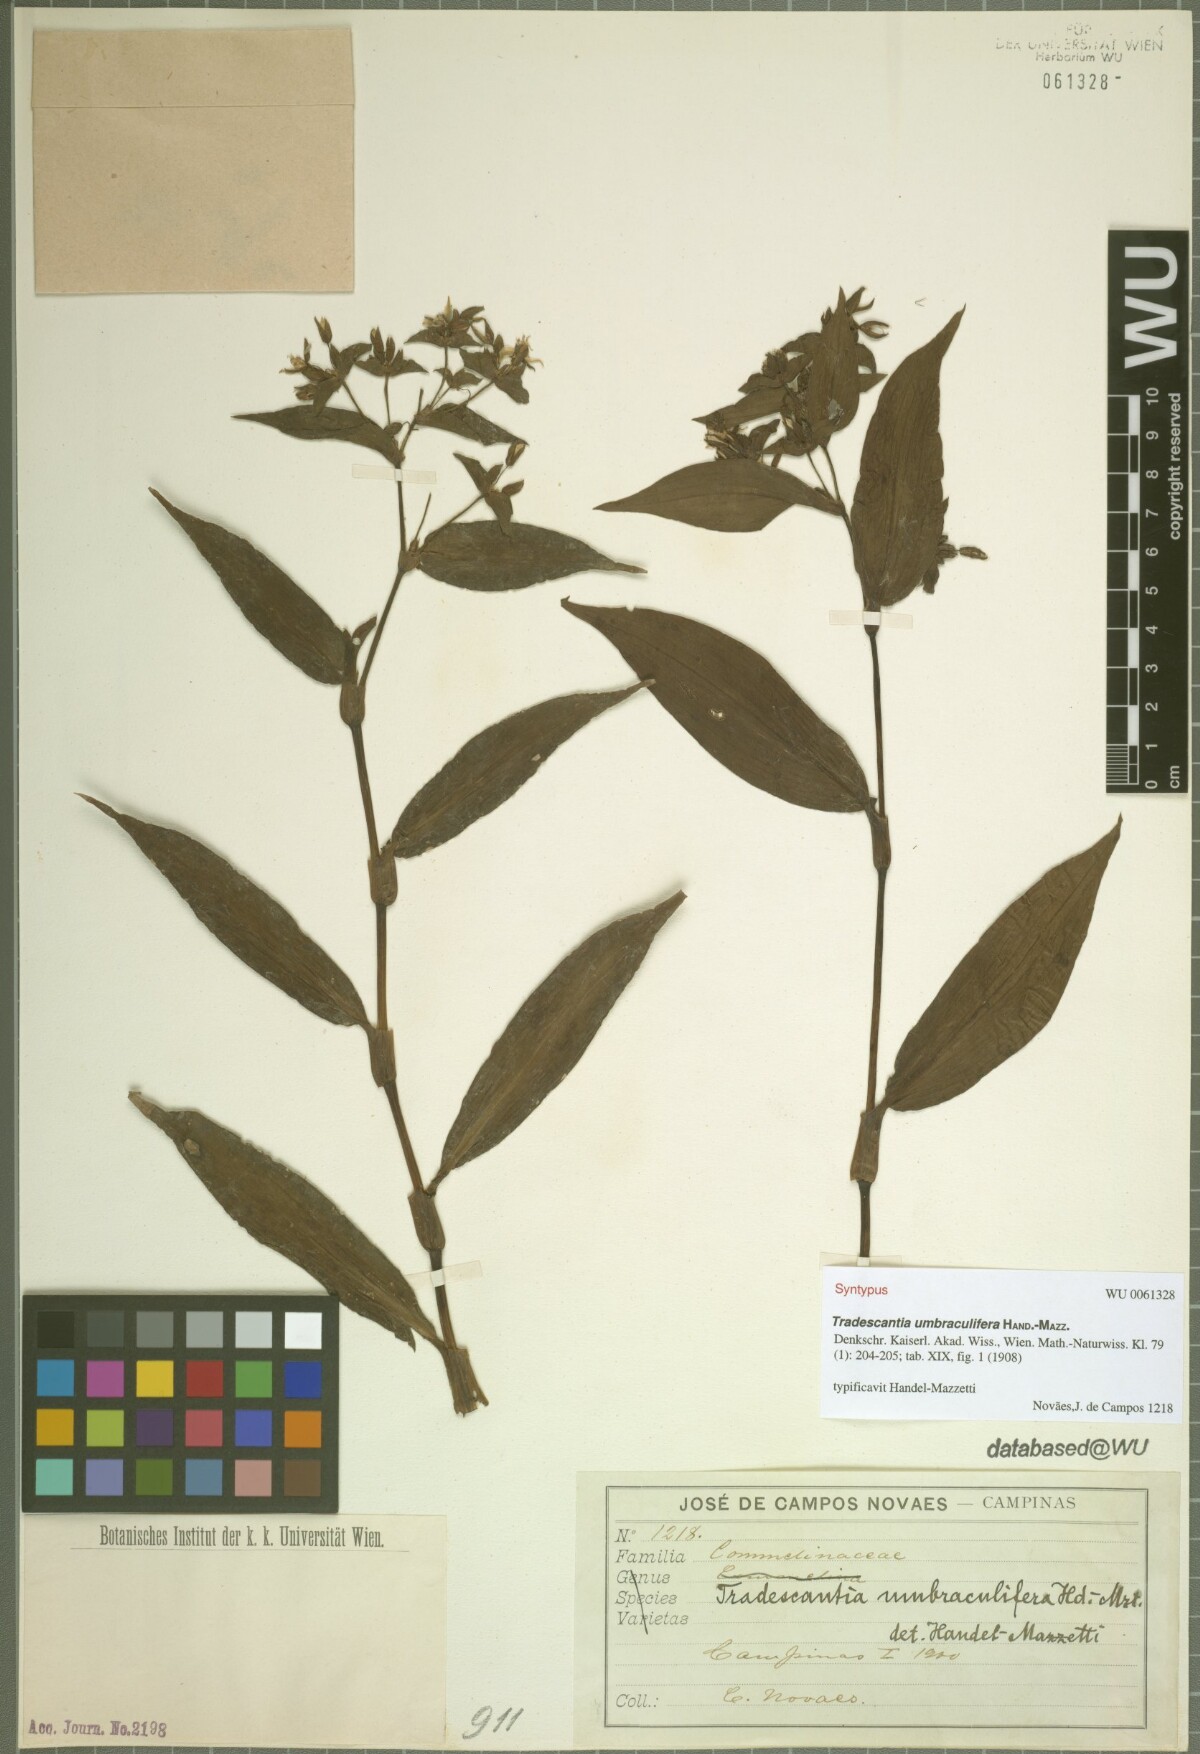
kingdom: Plantae
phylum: Tracheophyta
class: Liliopsida
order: Commelinales
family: Commelinaceae
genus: Tradescantia
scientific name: Tradescantia umbraculifera
